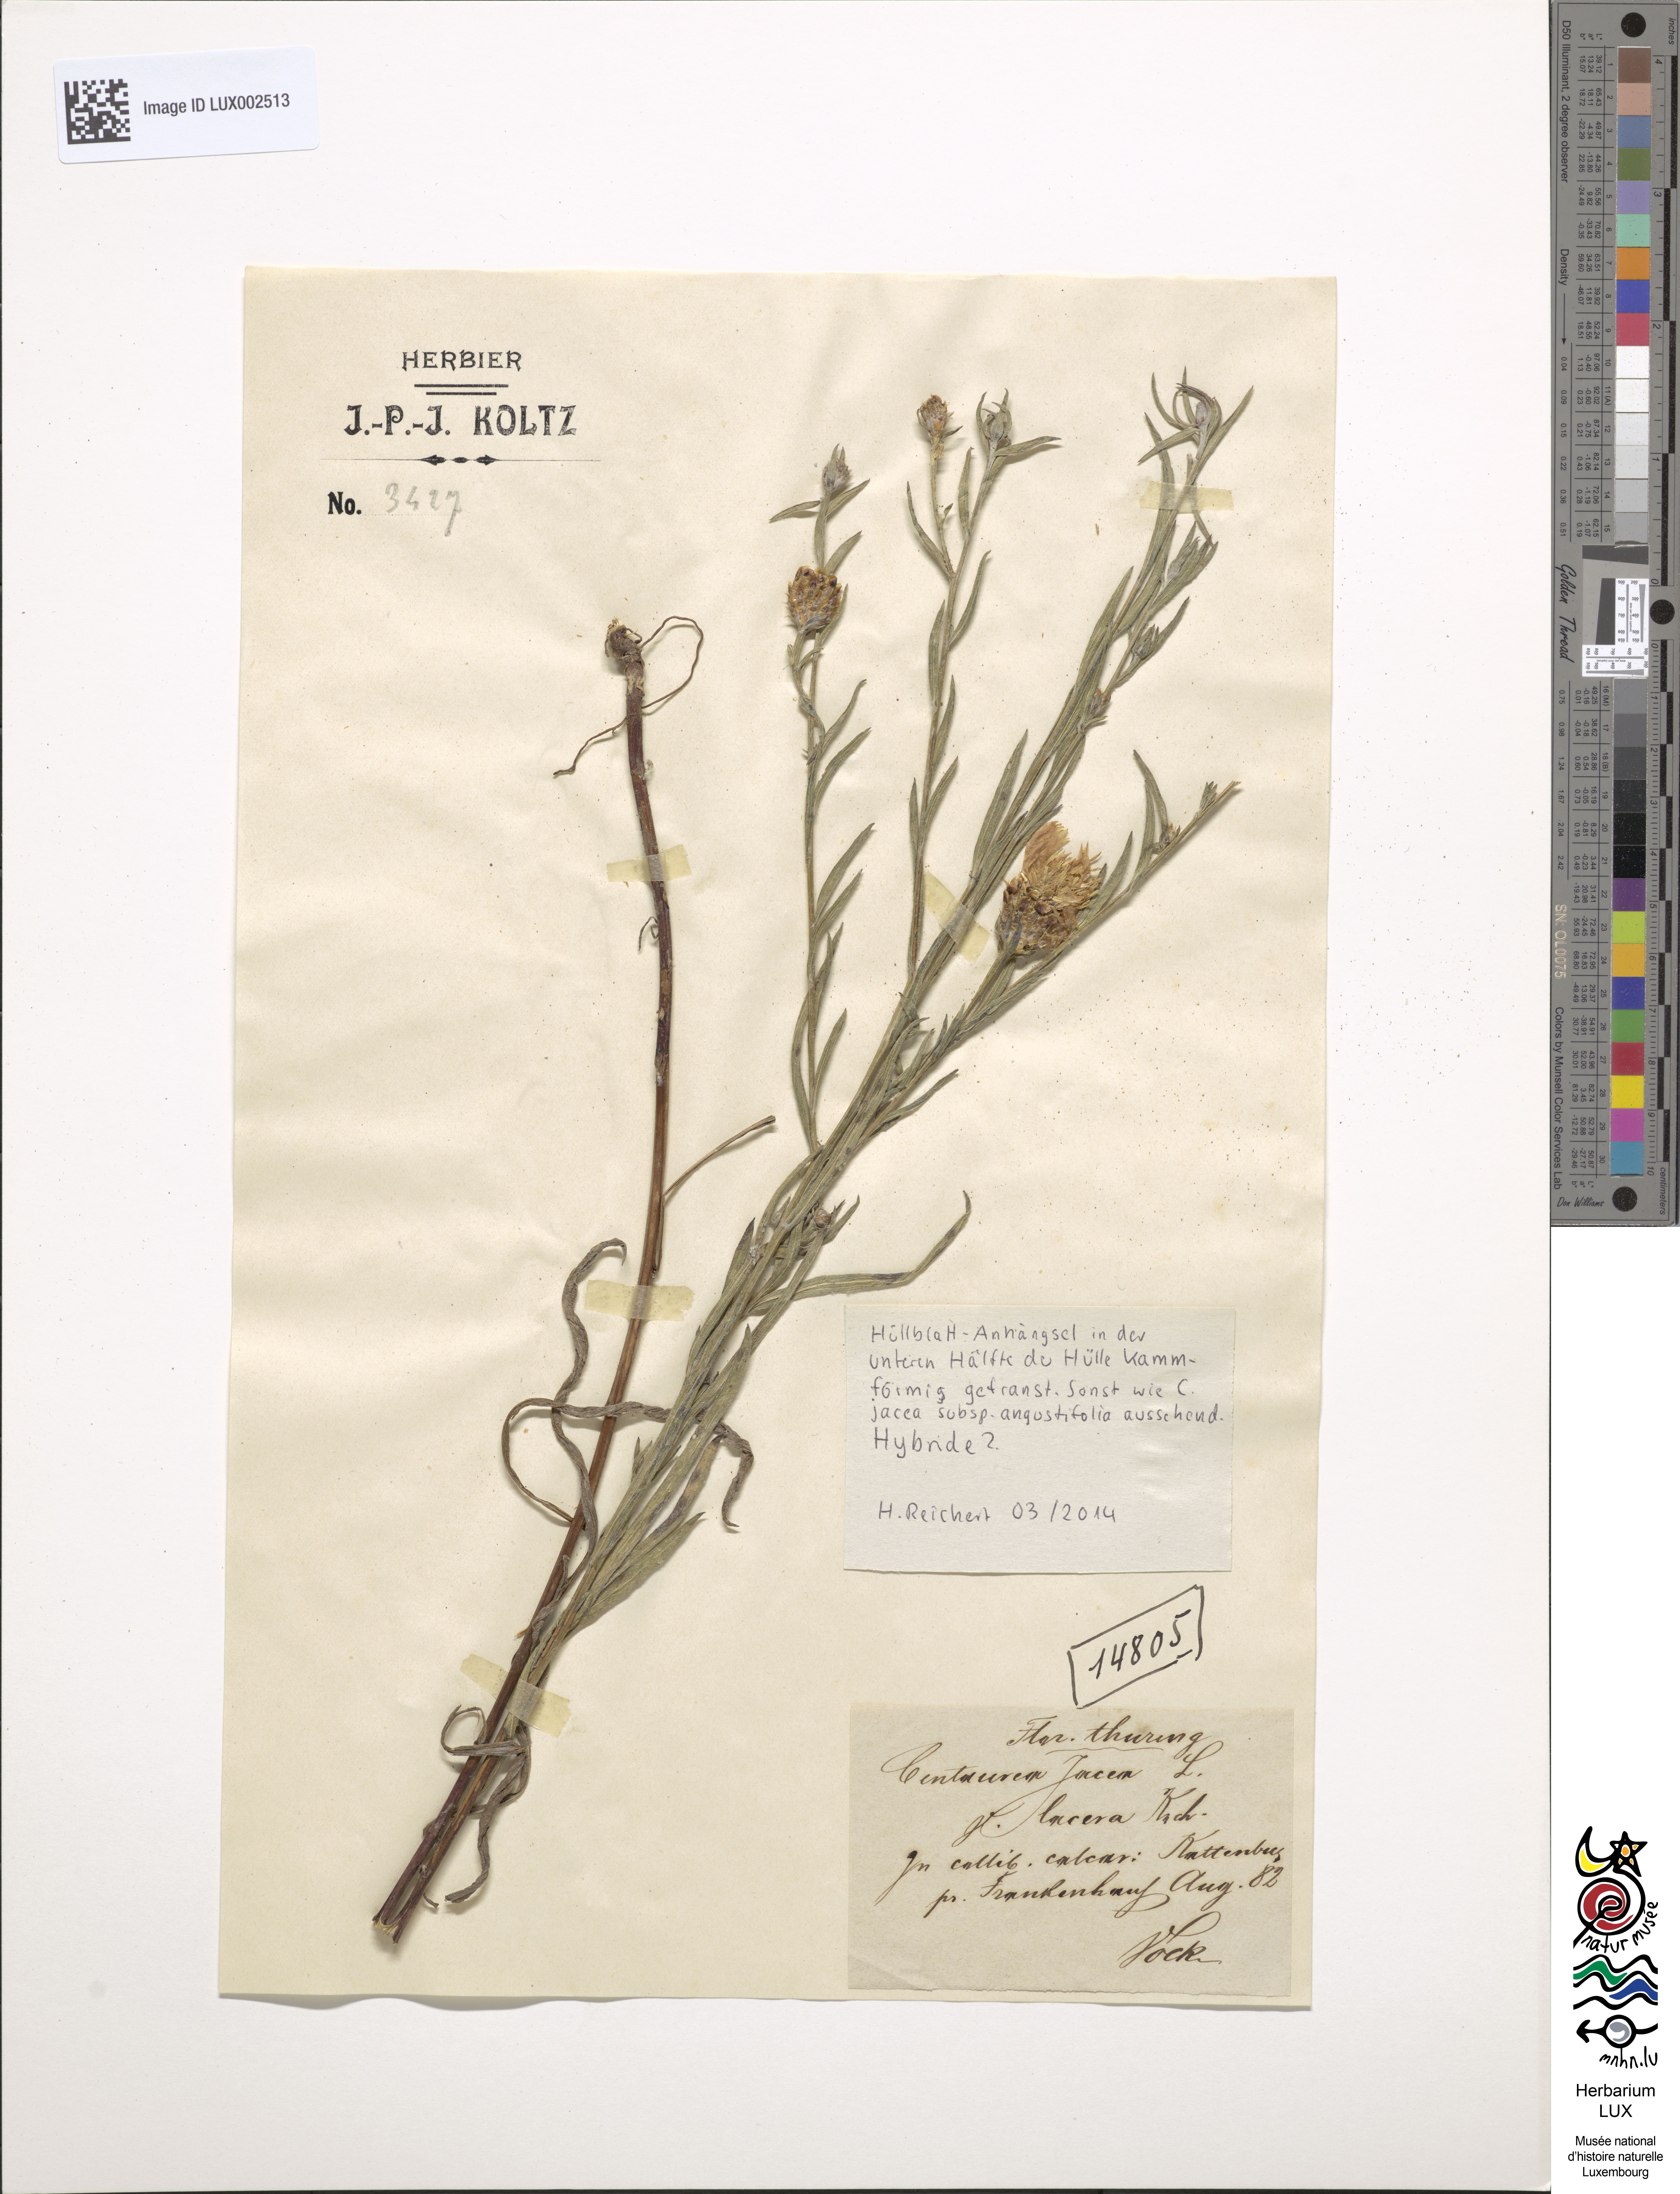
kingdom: Plantae
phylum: Tracheophyta
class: Magnoliopsida
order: Asterales
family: Asteraceae
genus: Centaurea
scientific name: Centaurea pannonica
